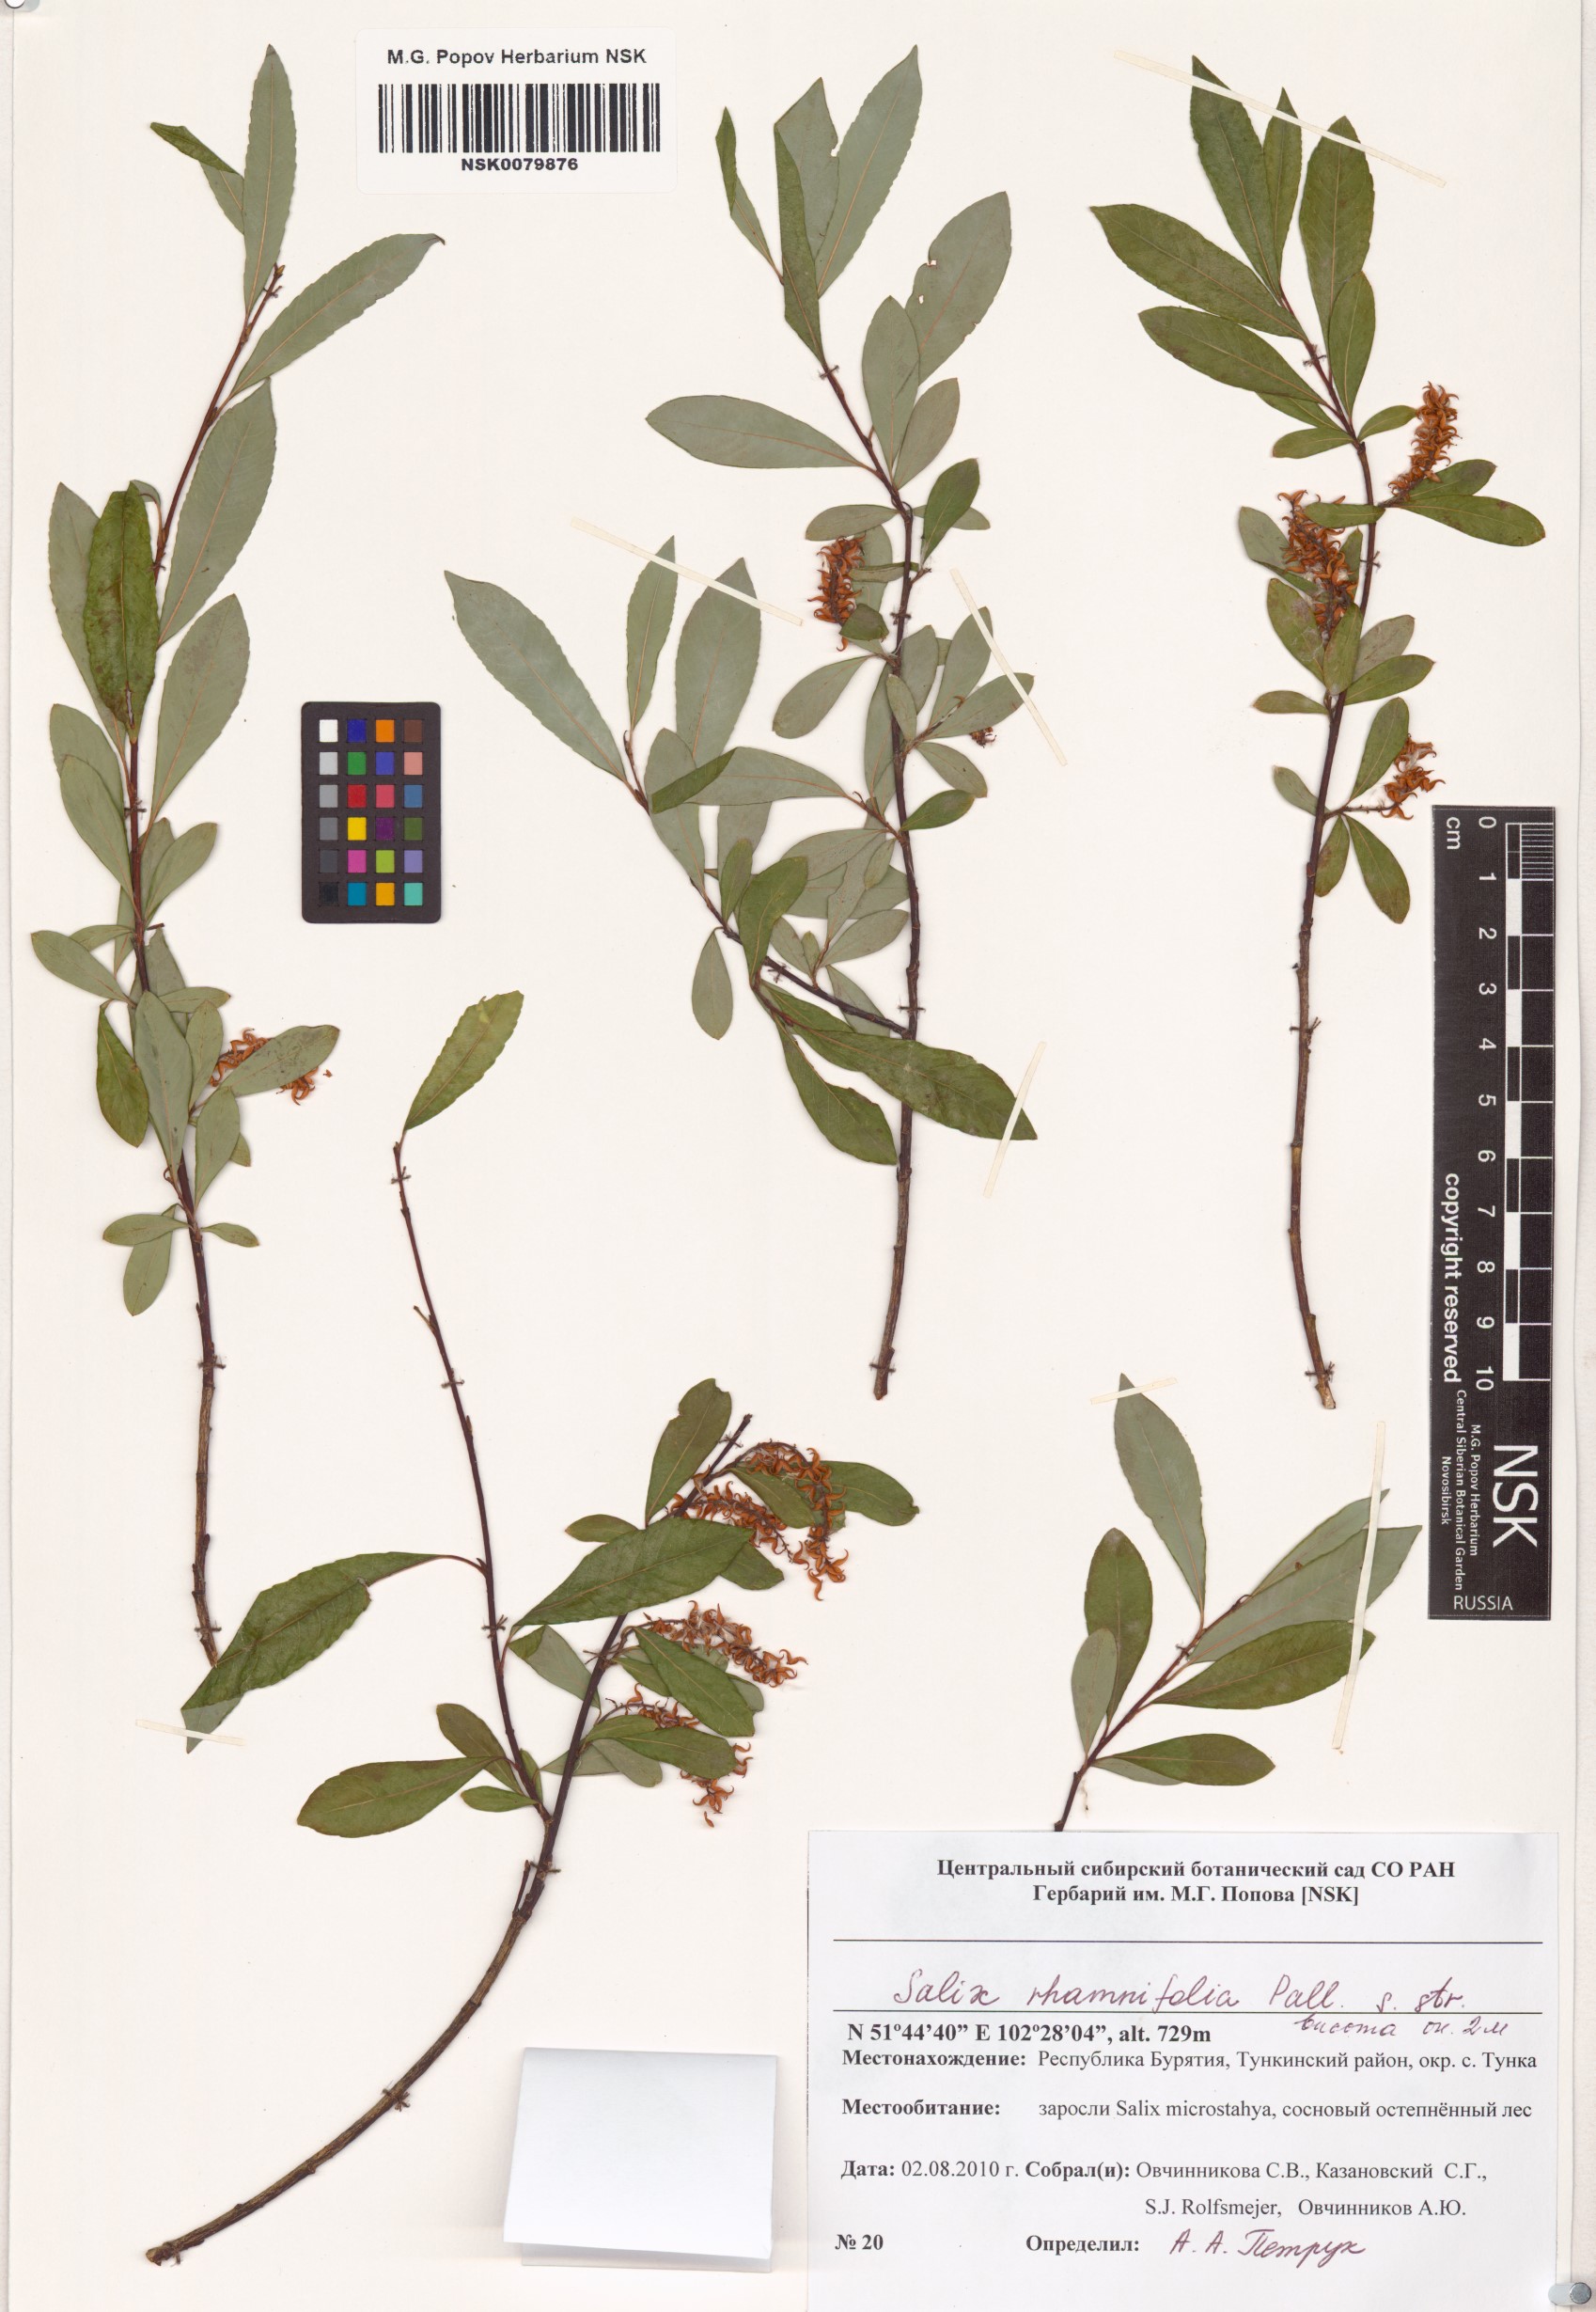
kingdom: Plantae
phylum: Tracheophyta
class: Magnoliopsida
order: Malpighiales
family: Salicaceae
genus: Salix
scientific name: Salix rhamnifolia
